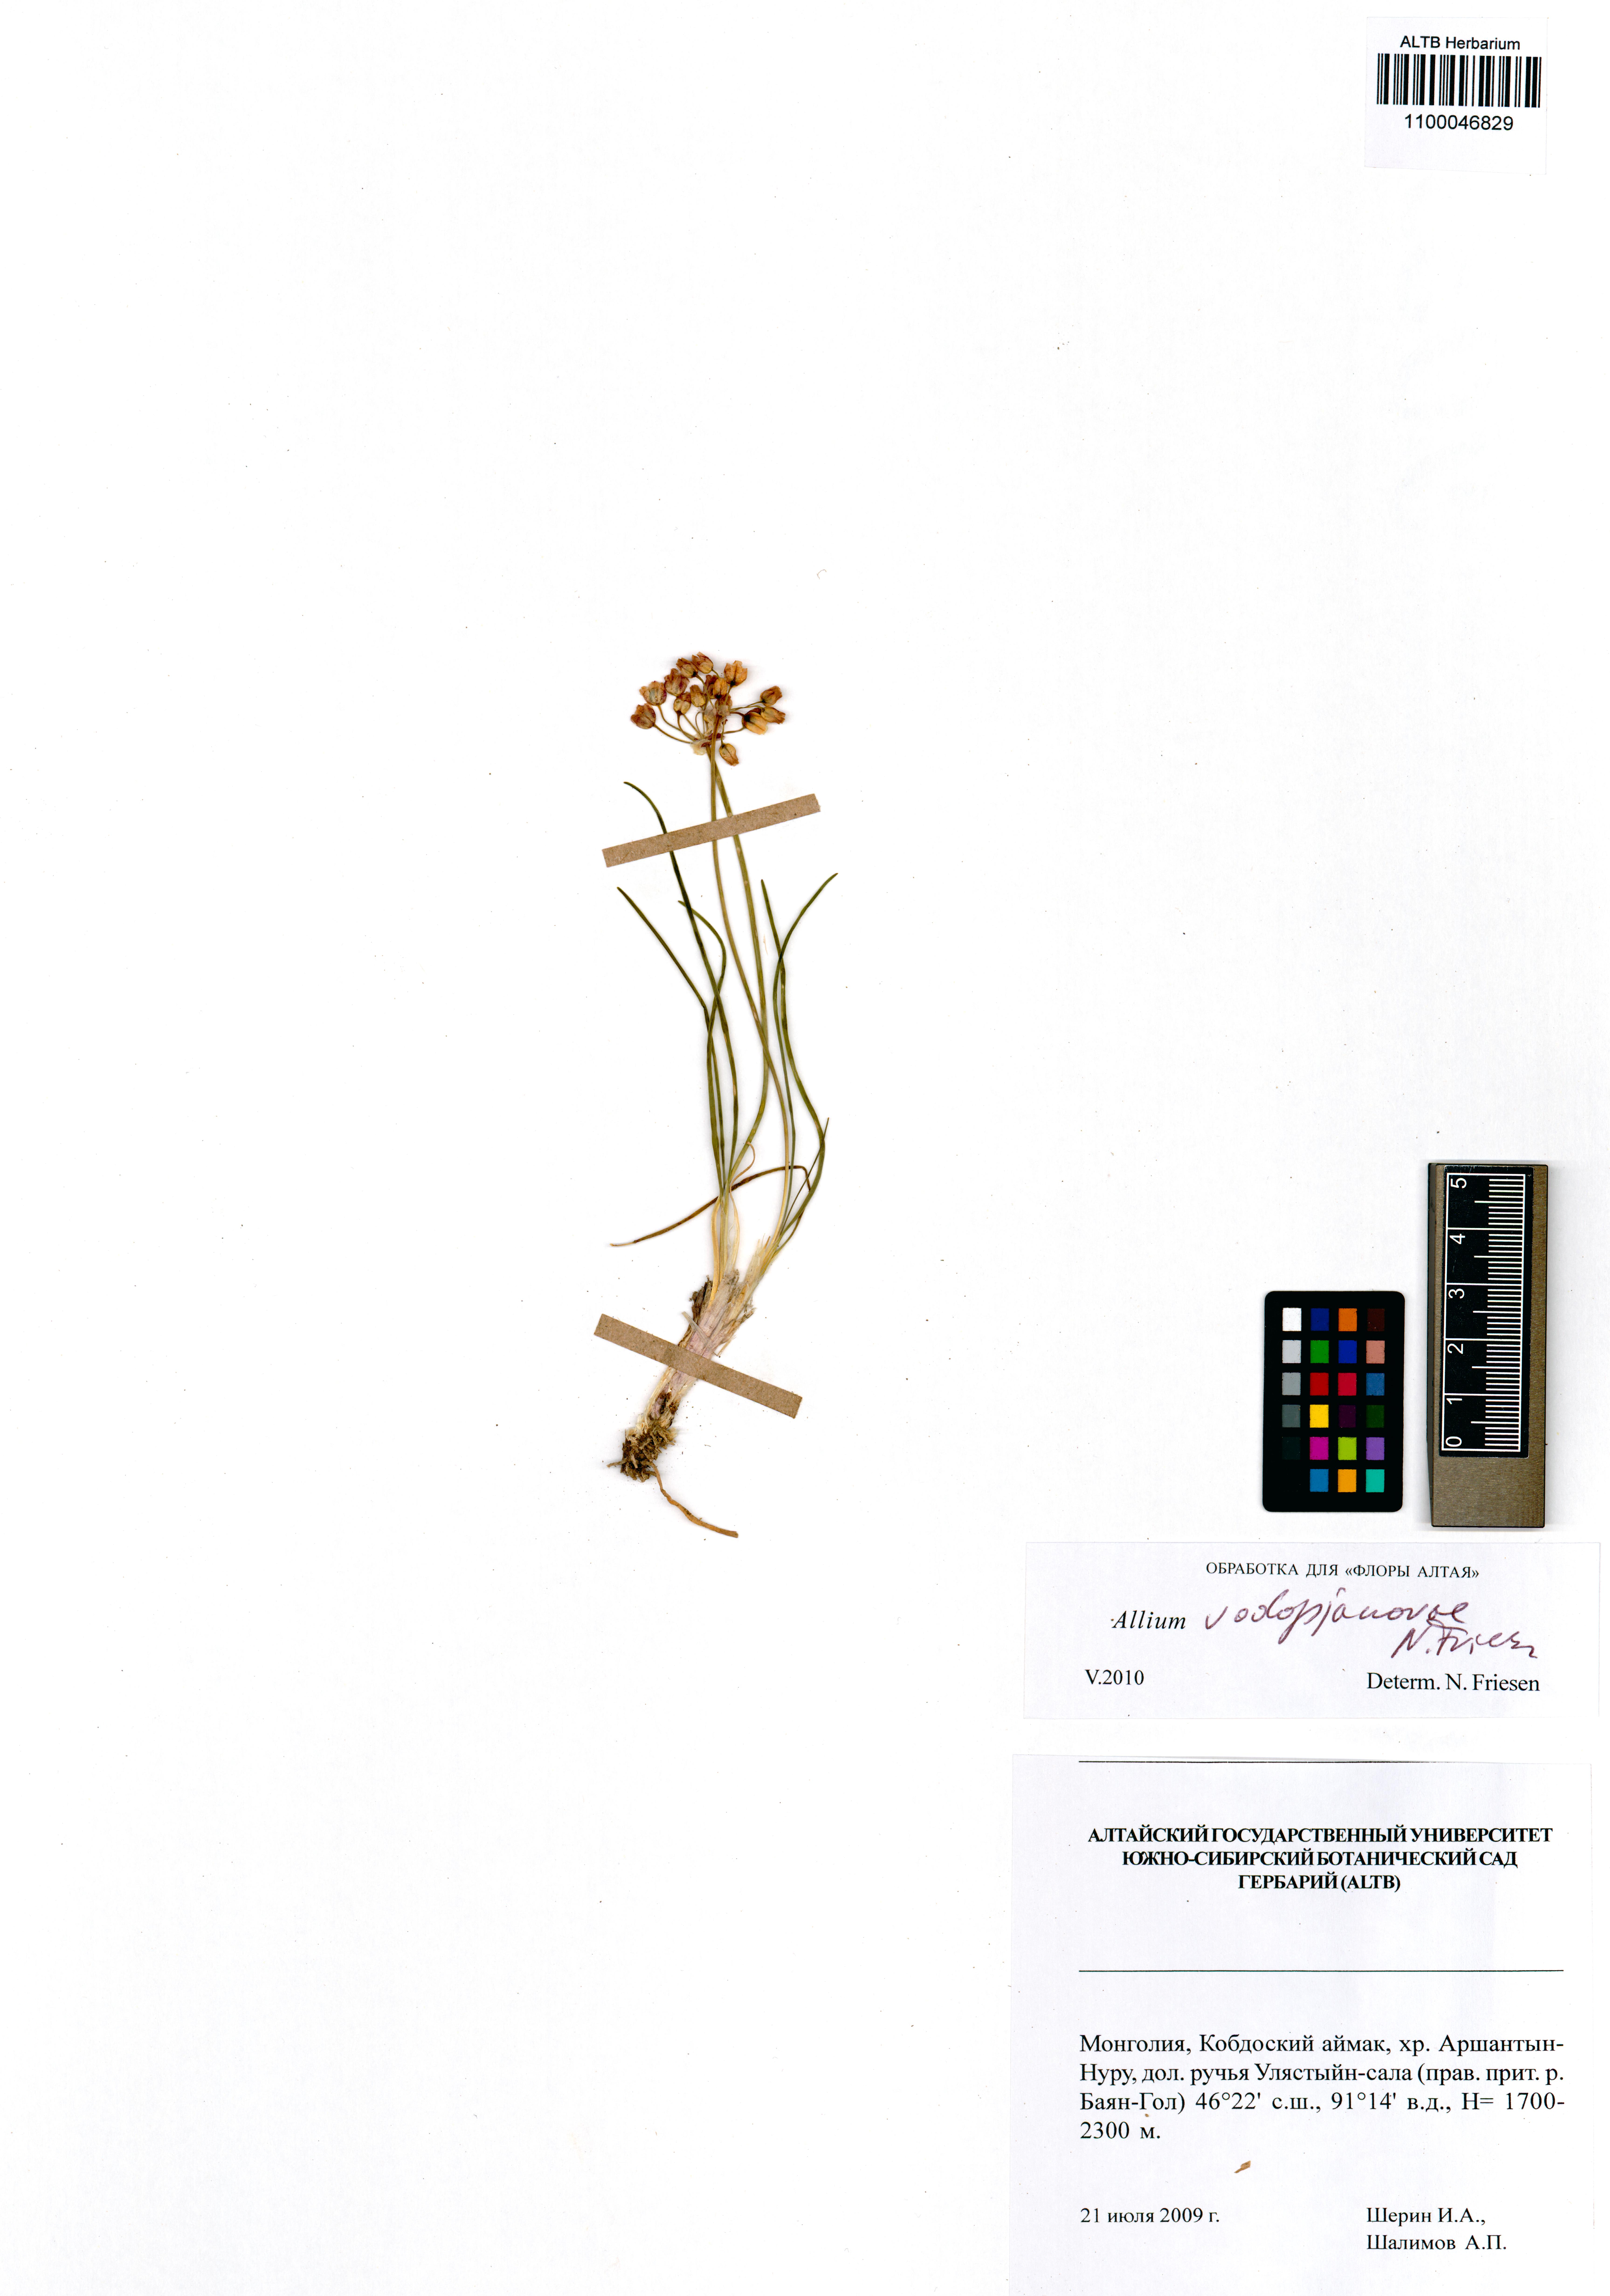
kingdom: Plantae
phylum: Tracheophyta
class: Liliopsida
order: Asparagales
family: Amaryllidaceae
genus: Allium
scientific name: Allium vodopjanovae
